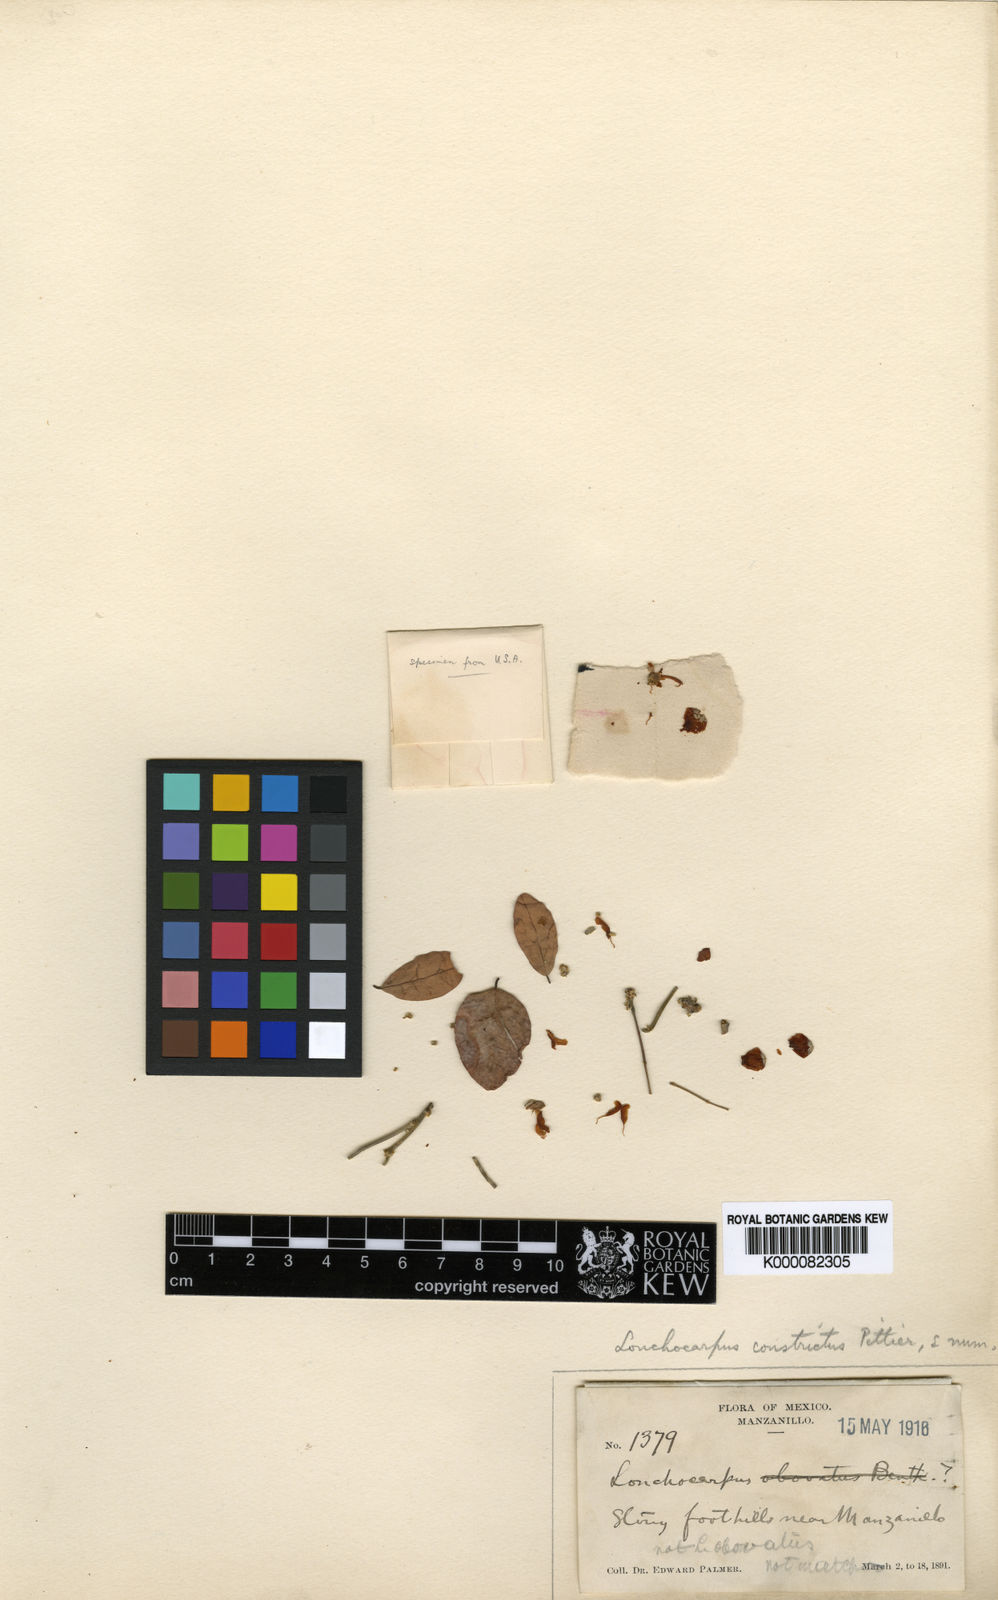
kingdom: Plantae
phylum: Tracheophyta
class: Magnoliopsida
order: Fabales
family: Fabaceae
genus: Lonchocarpus
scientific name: Lonchocarpus constrictus
